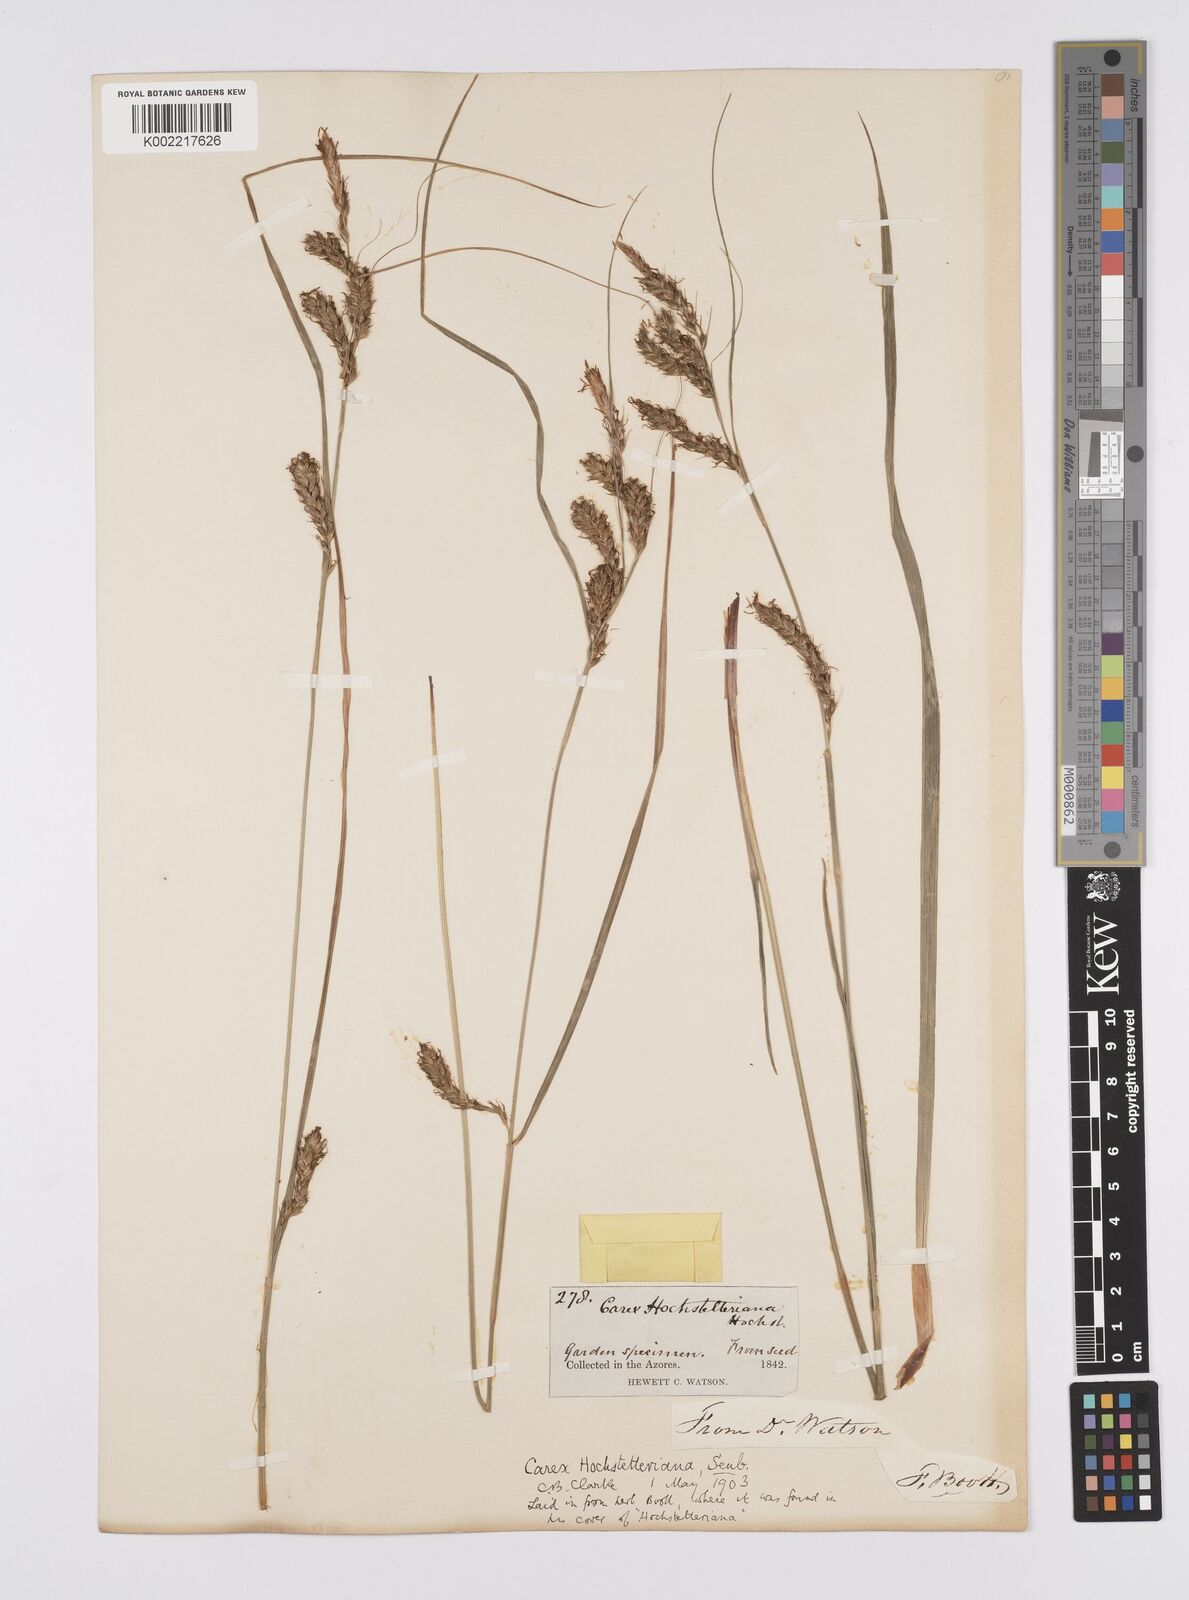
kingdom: Plantae
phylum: Tracheophyta
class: Liliopsida
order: Poales
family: Cyperaceae
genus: Carex
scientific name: Carex hochstetteriana
